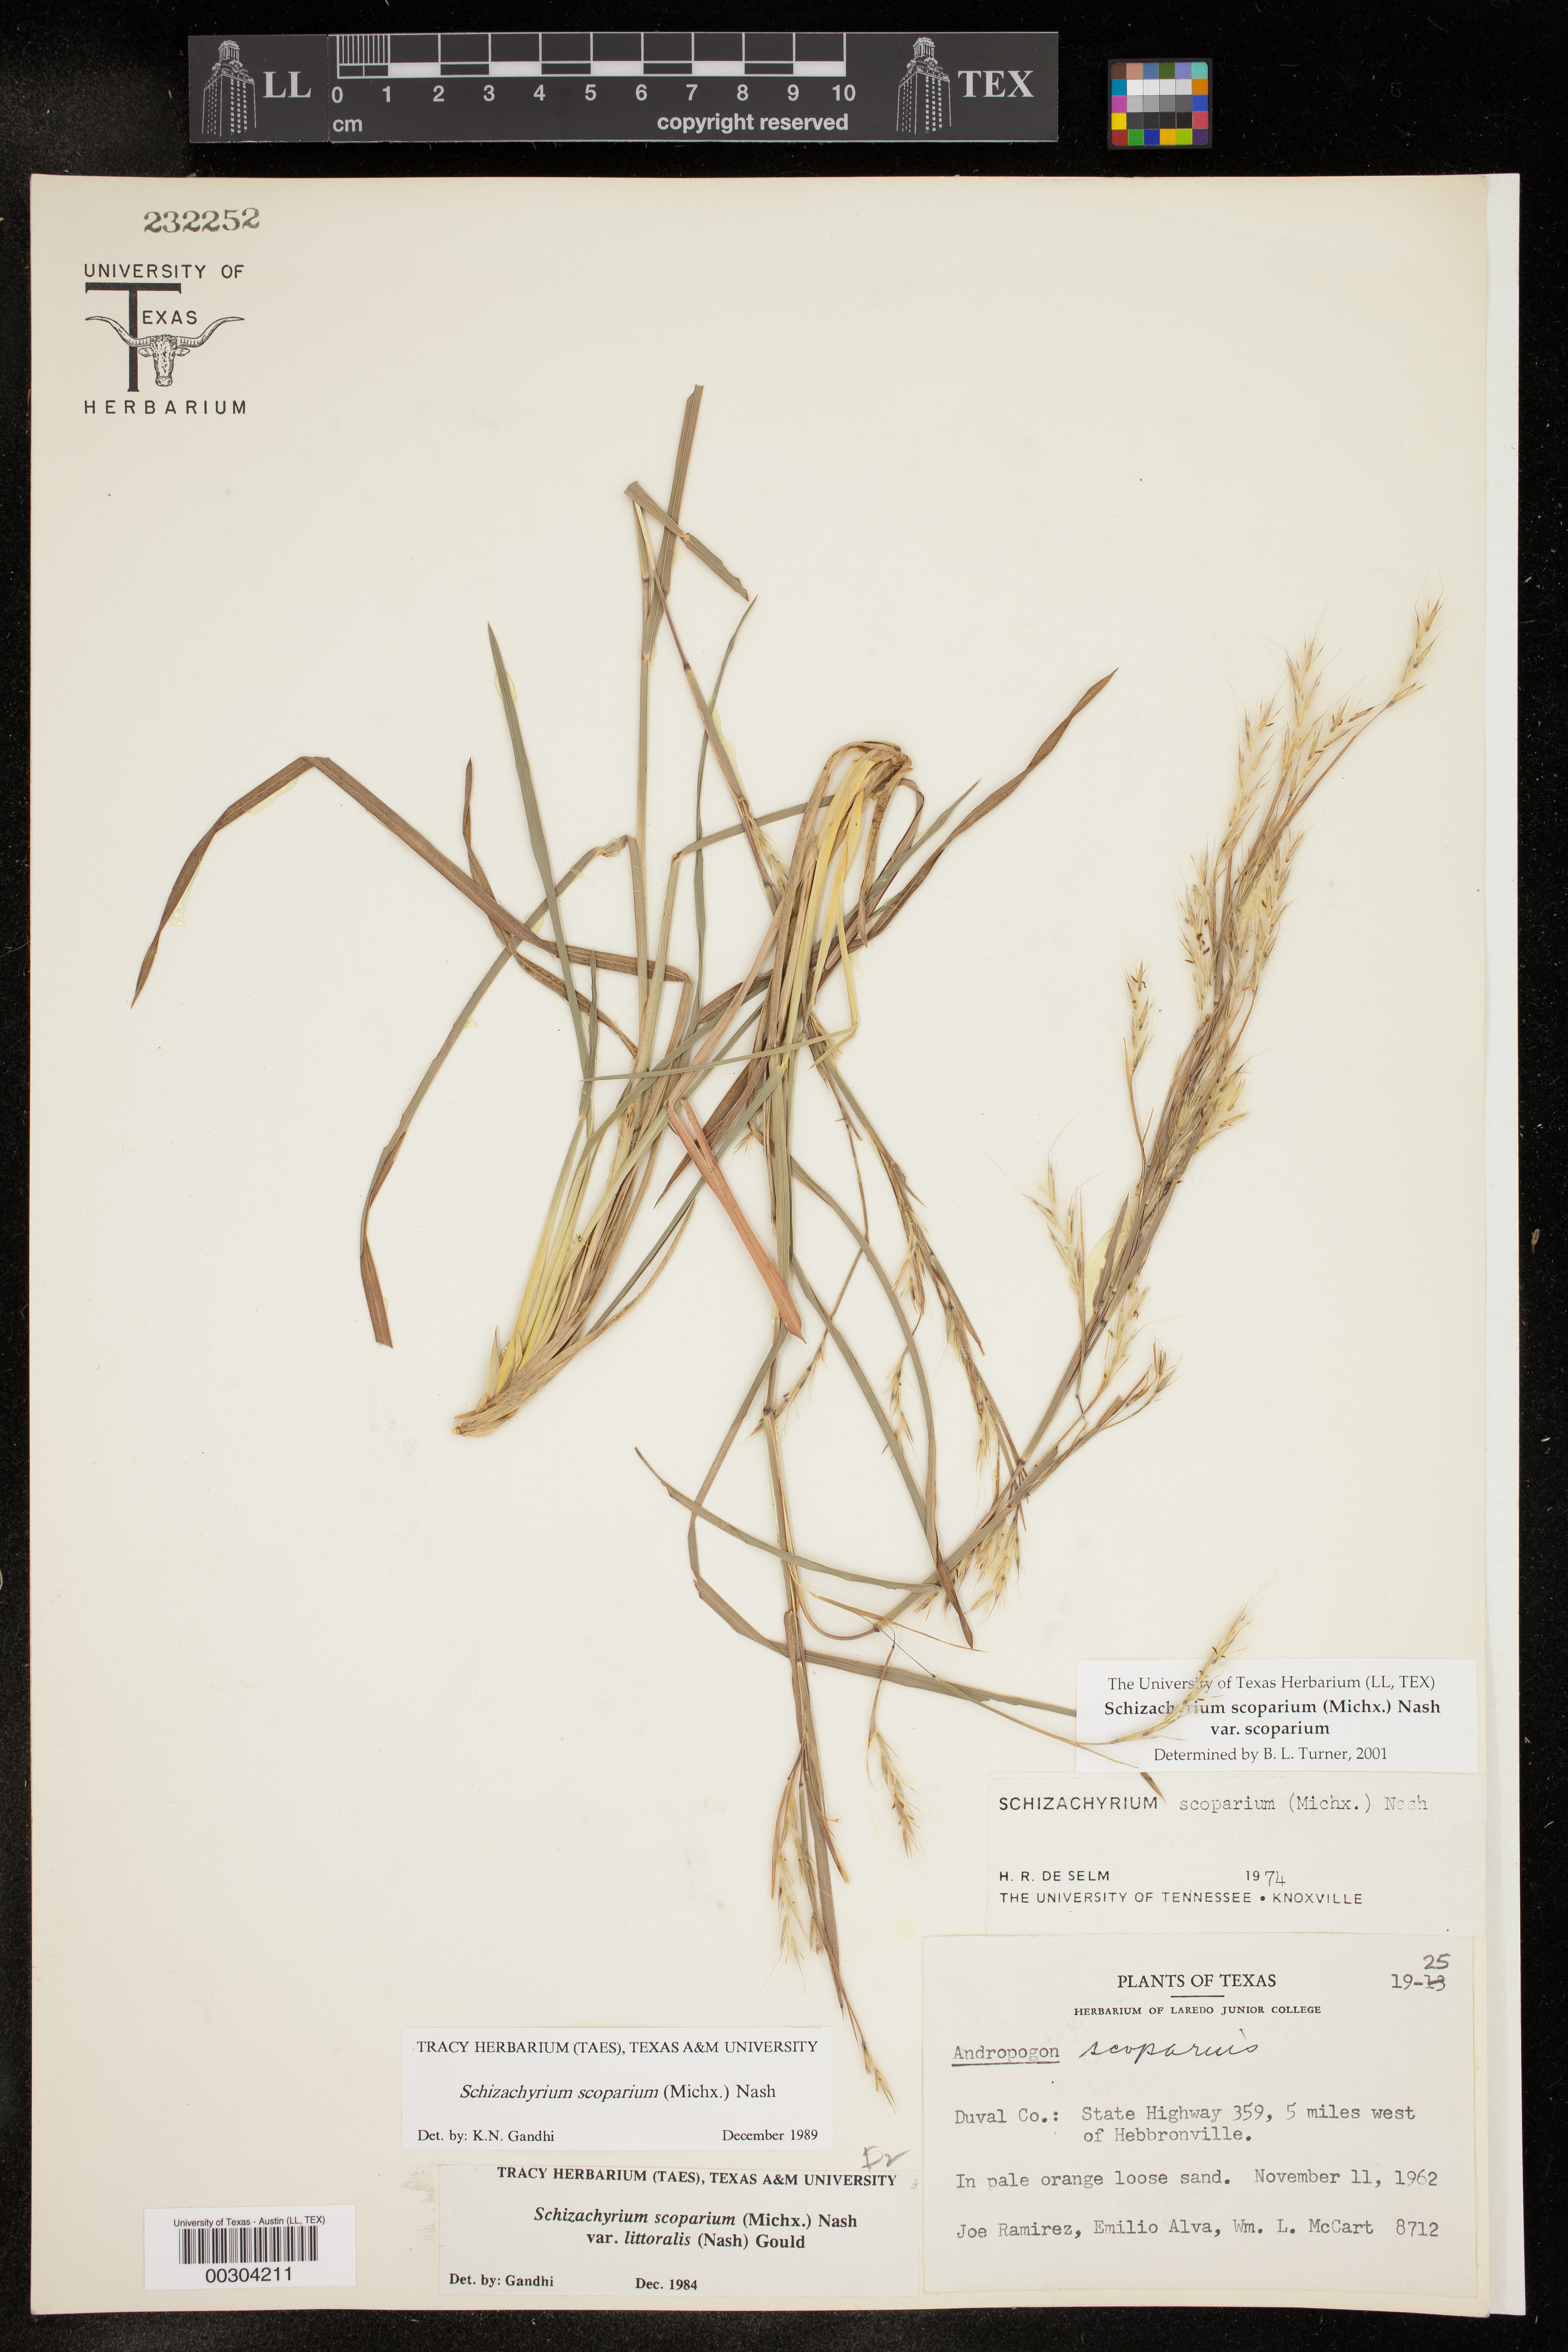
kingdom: Plantae
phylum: Tracheophyta
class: Liliopsida
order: Poales
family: Poaceae
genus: Schizachyrium
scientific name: Schizachyrium scoparium
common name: Little bluestem
